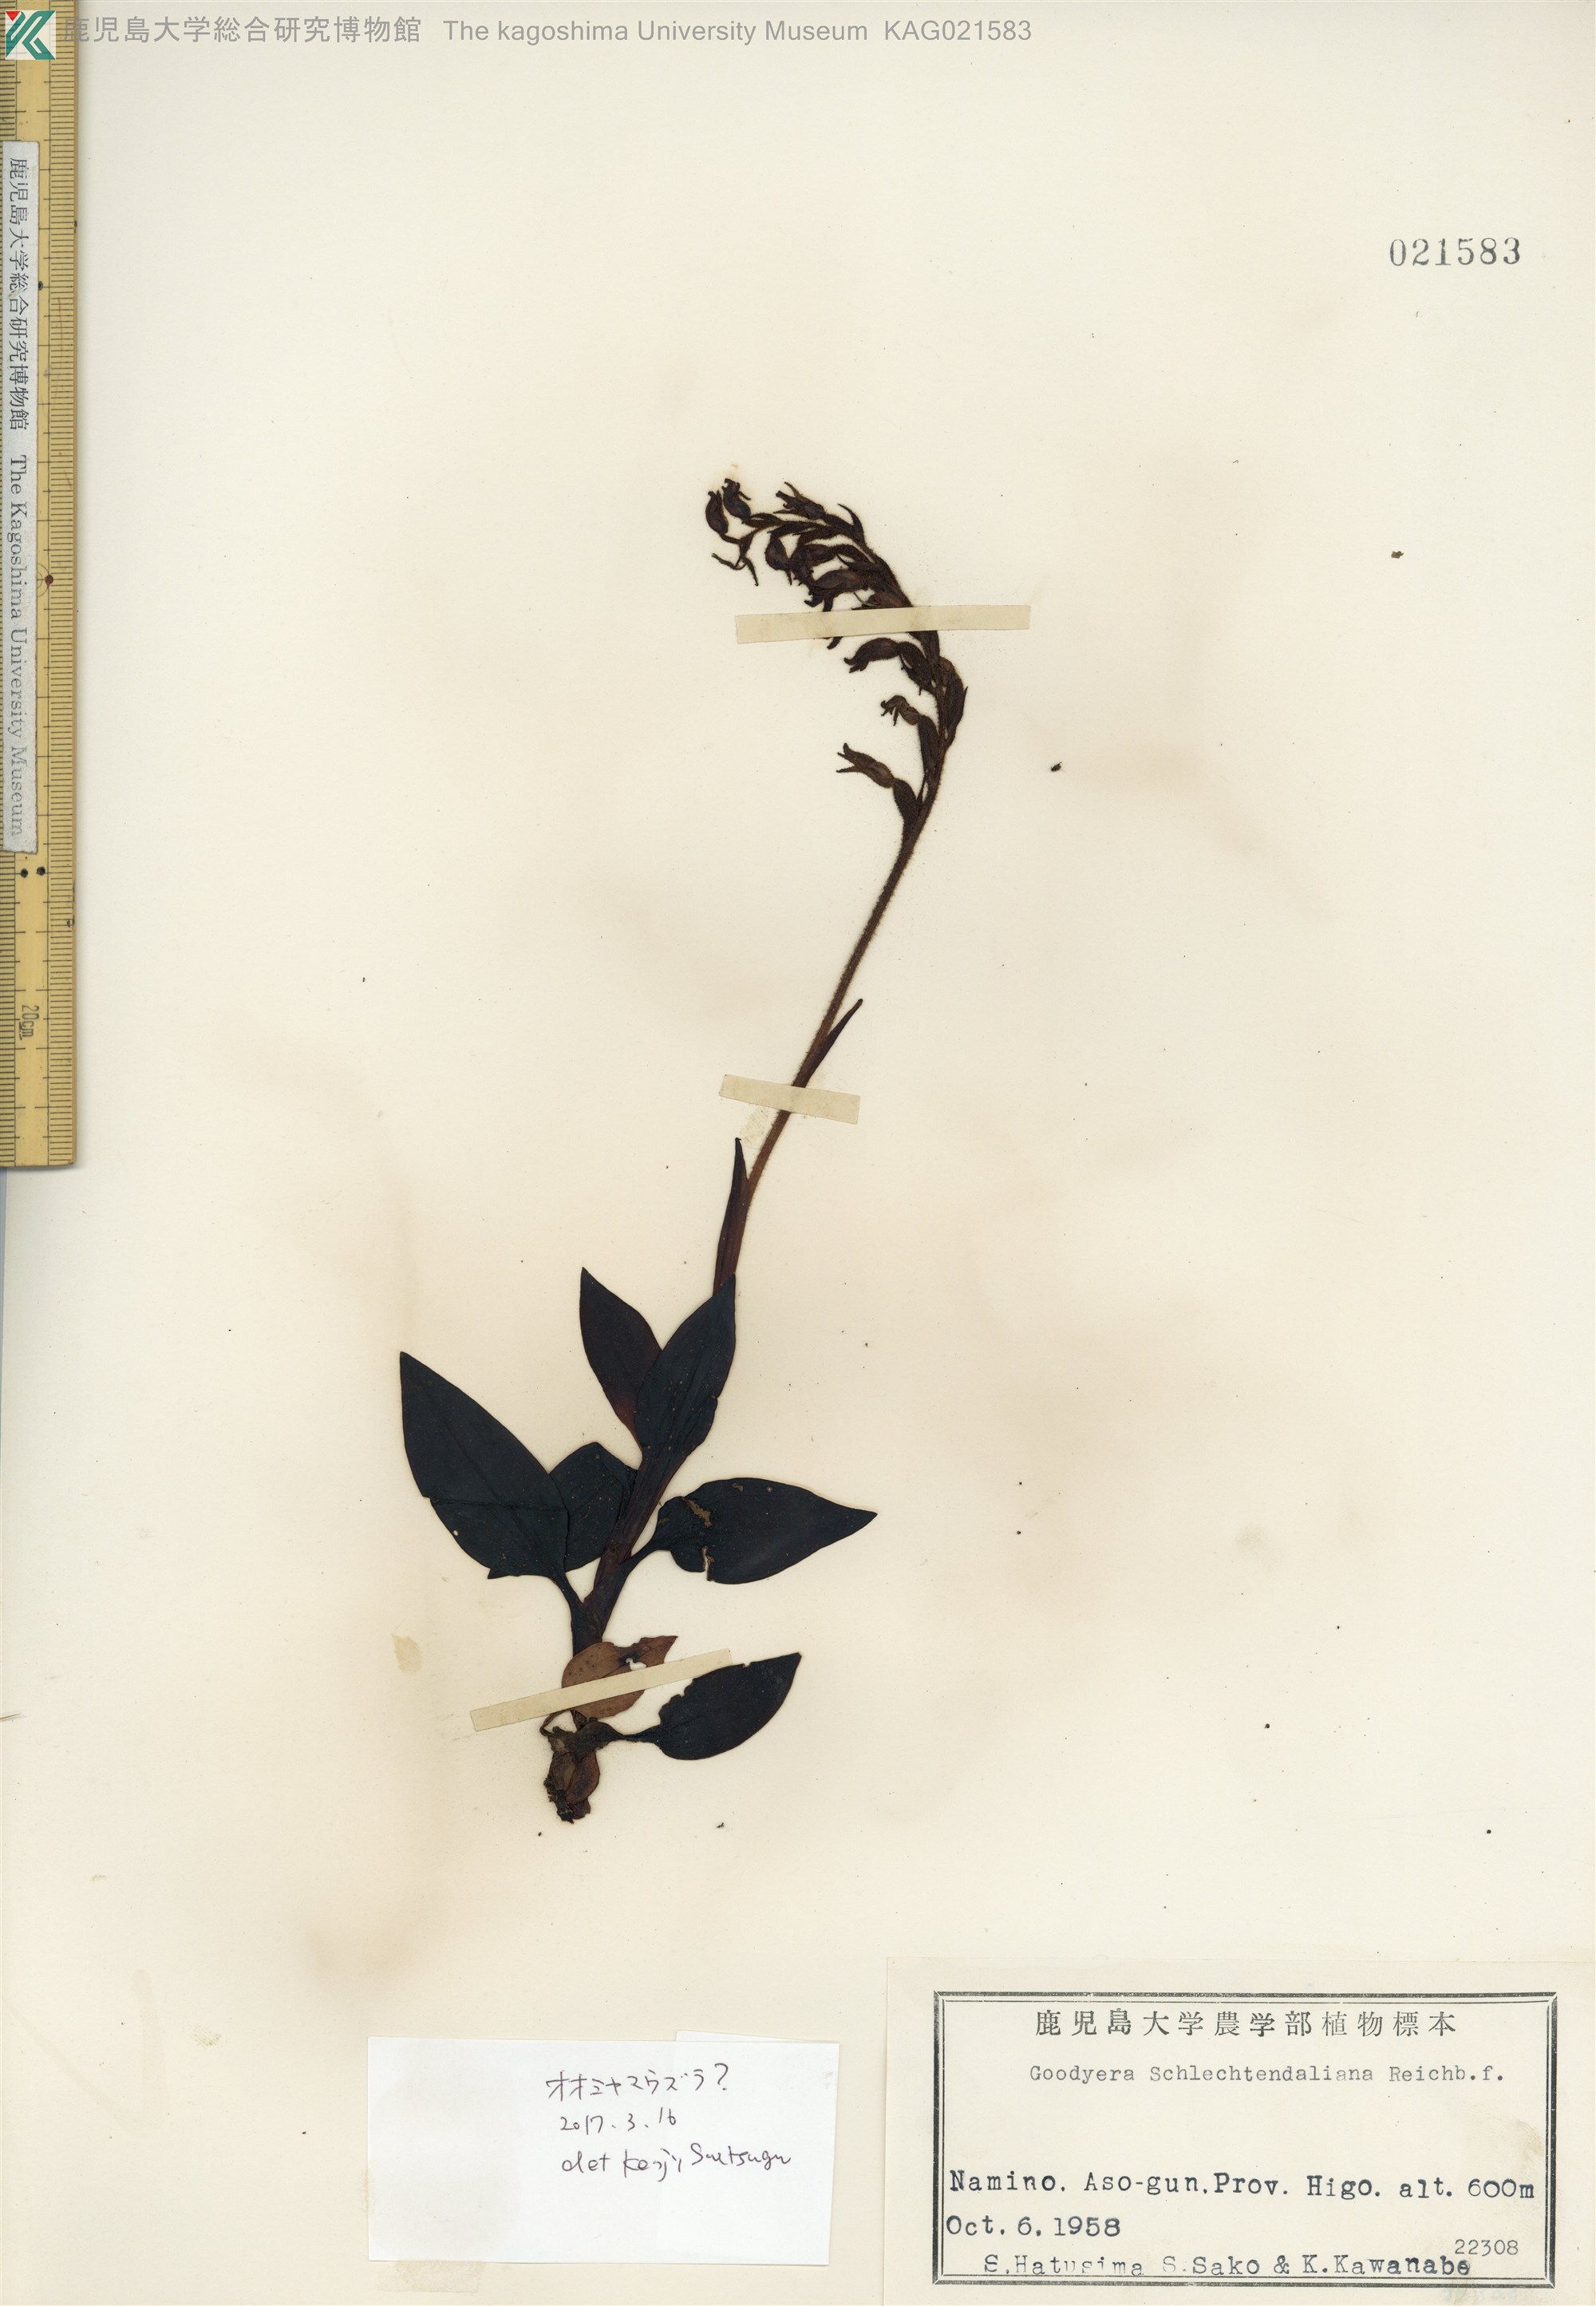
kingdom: Plantae
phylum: Tracheophyta
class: Liliopsida
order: Asparagales
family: Orchidaceae
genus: Goodyera
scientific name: Goodyera schlechtendaliana
